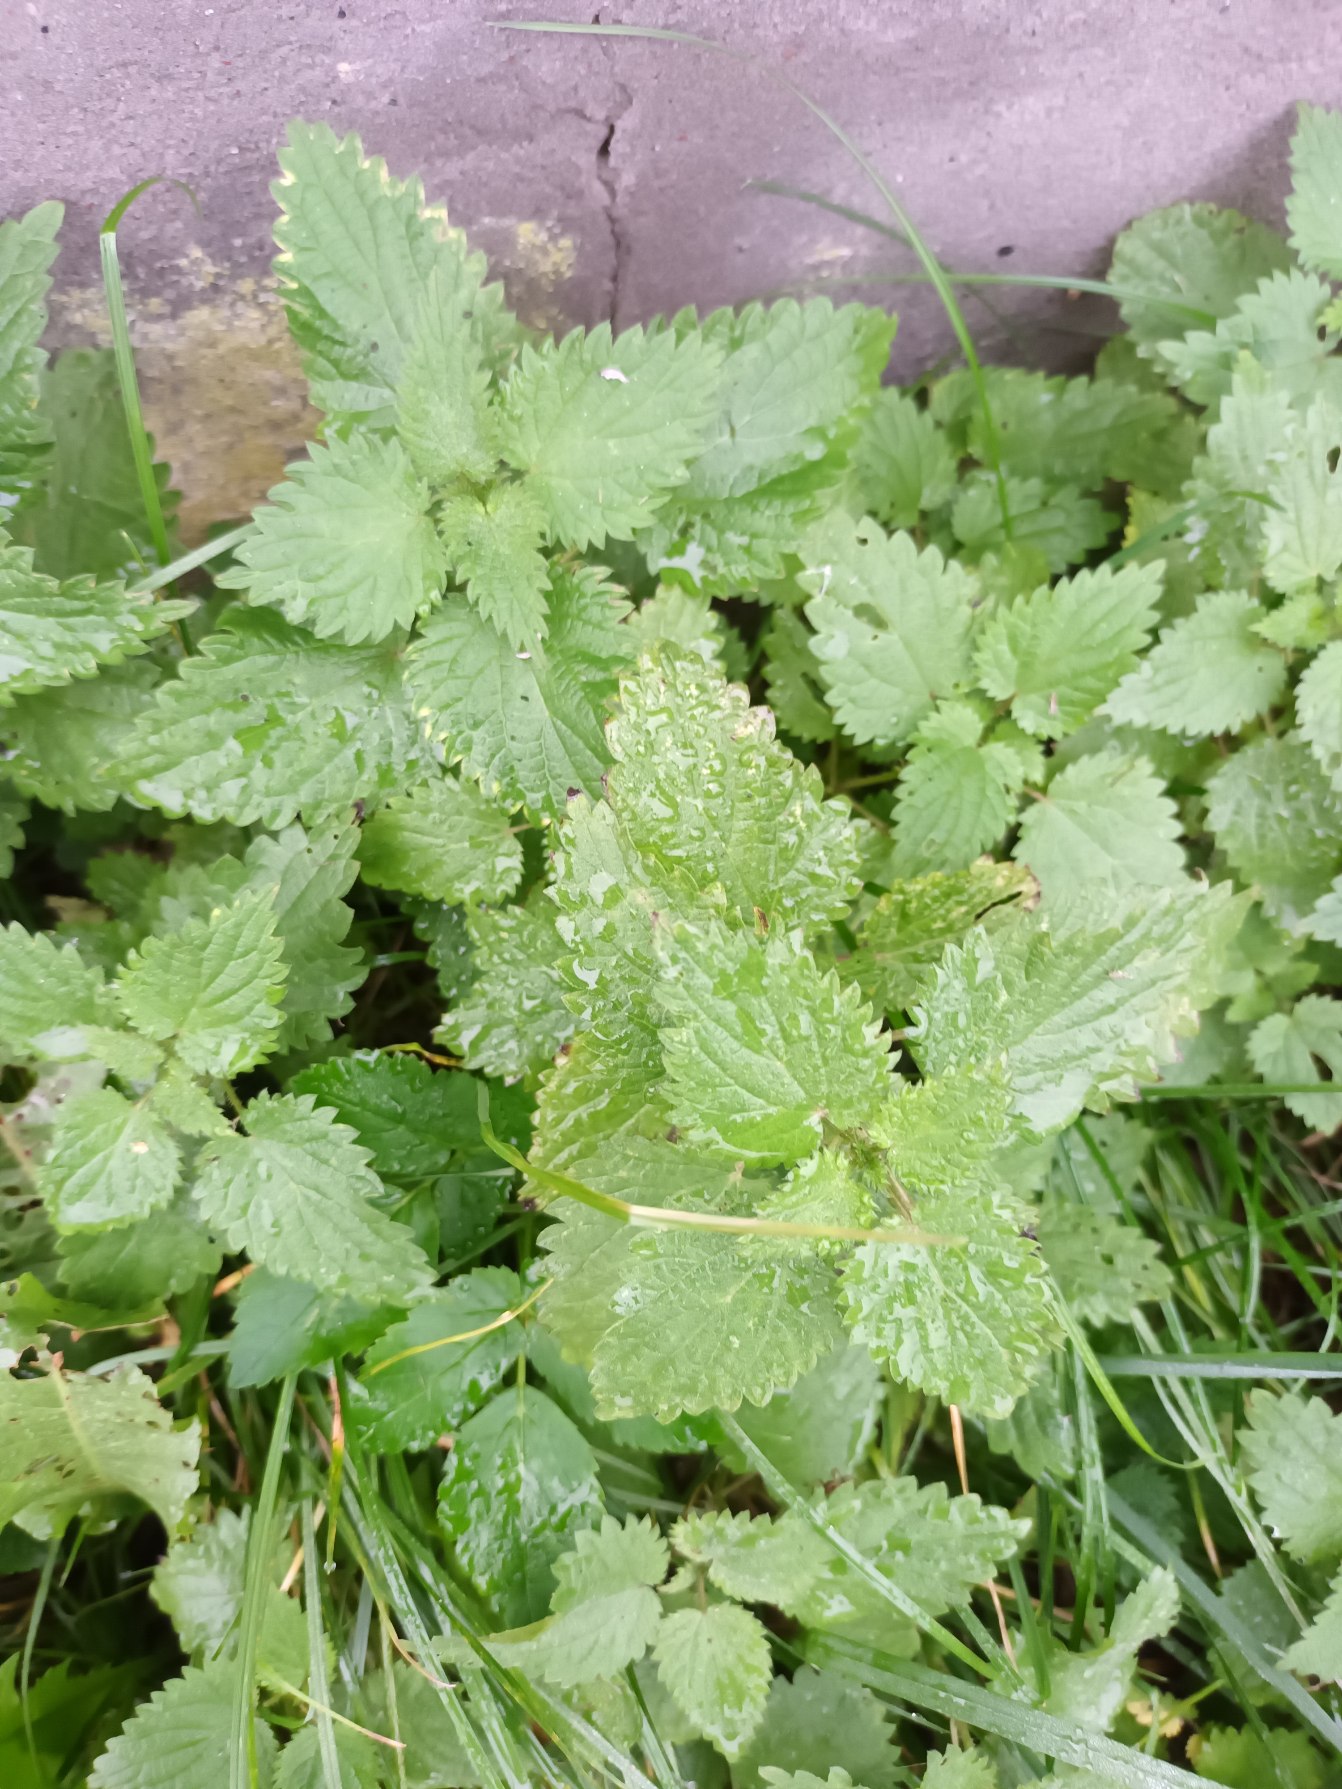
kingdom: Plantae
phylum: Tracheophyta
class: Magnoliopsida
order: Rosales
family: Urticaceae
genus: Urtica
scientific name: Urtica dioica
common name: Stor nælde
